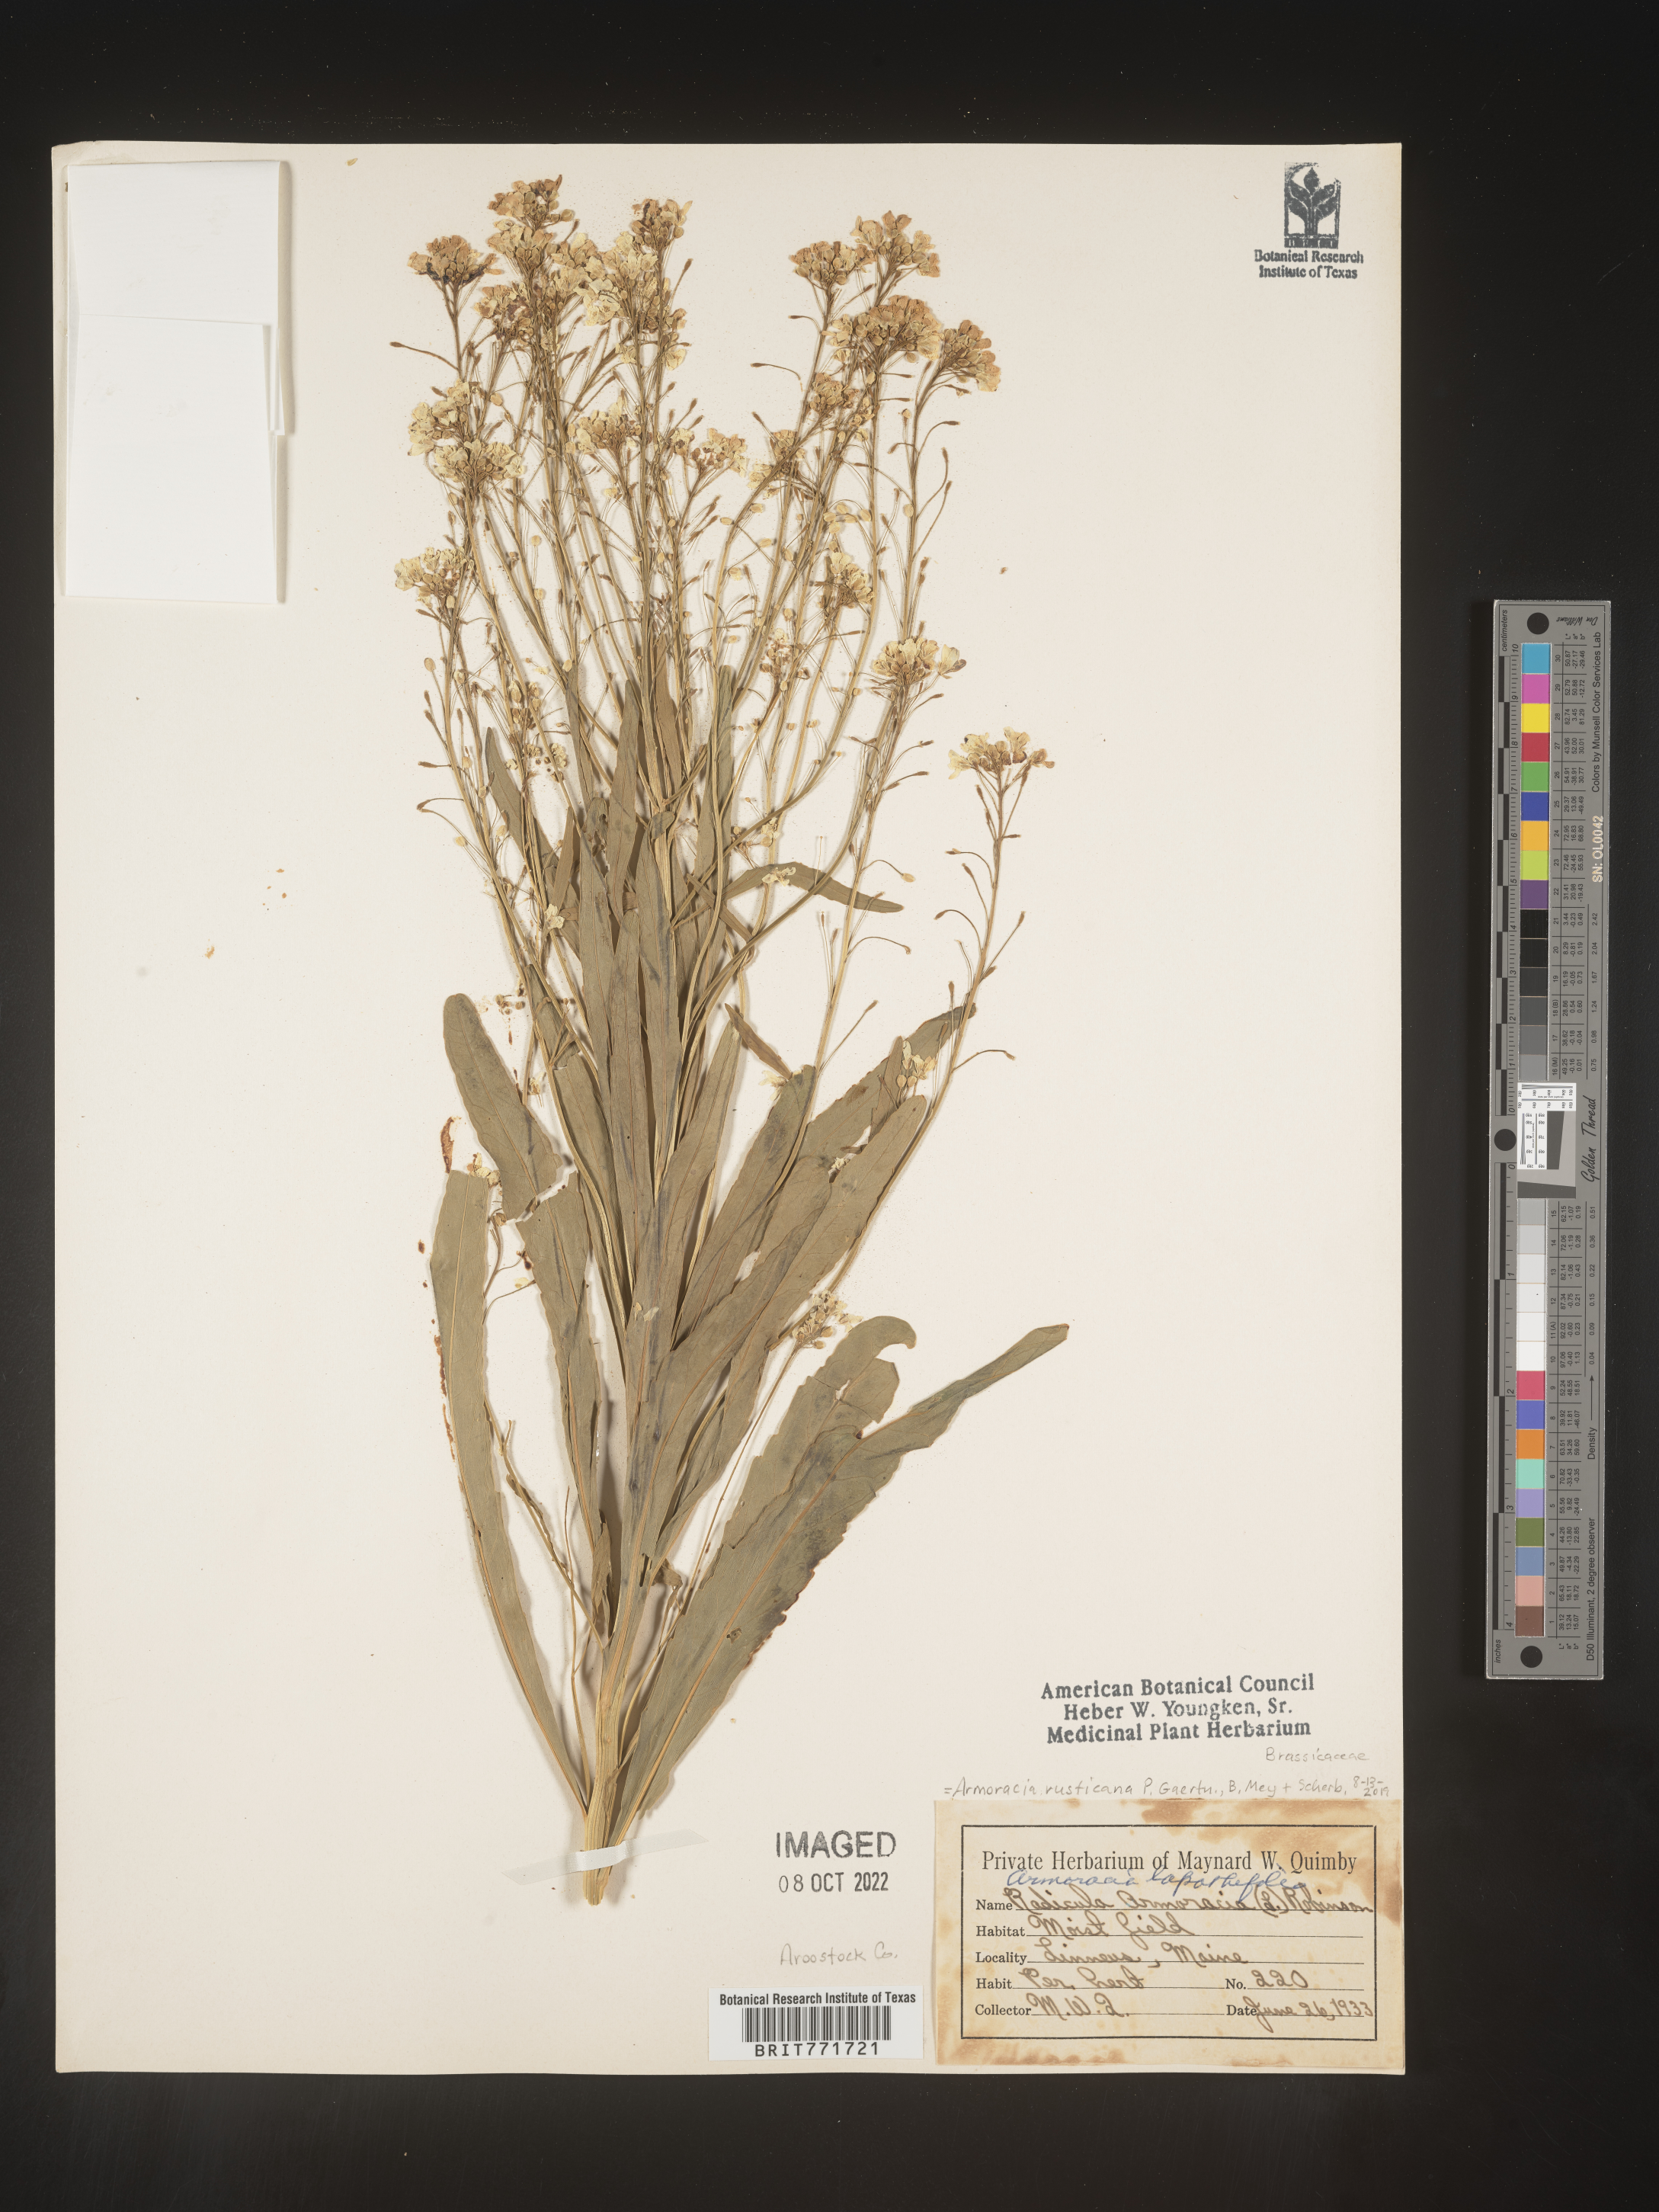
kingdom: Plantae
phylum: Tracheophyta
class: Magnoliopsida
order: Brassicales
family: Brassicaceae
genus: Armoracia
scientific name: Armoracia
